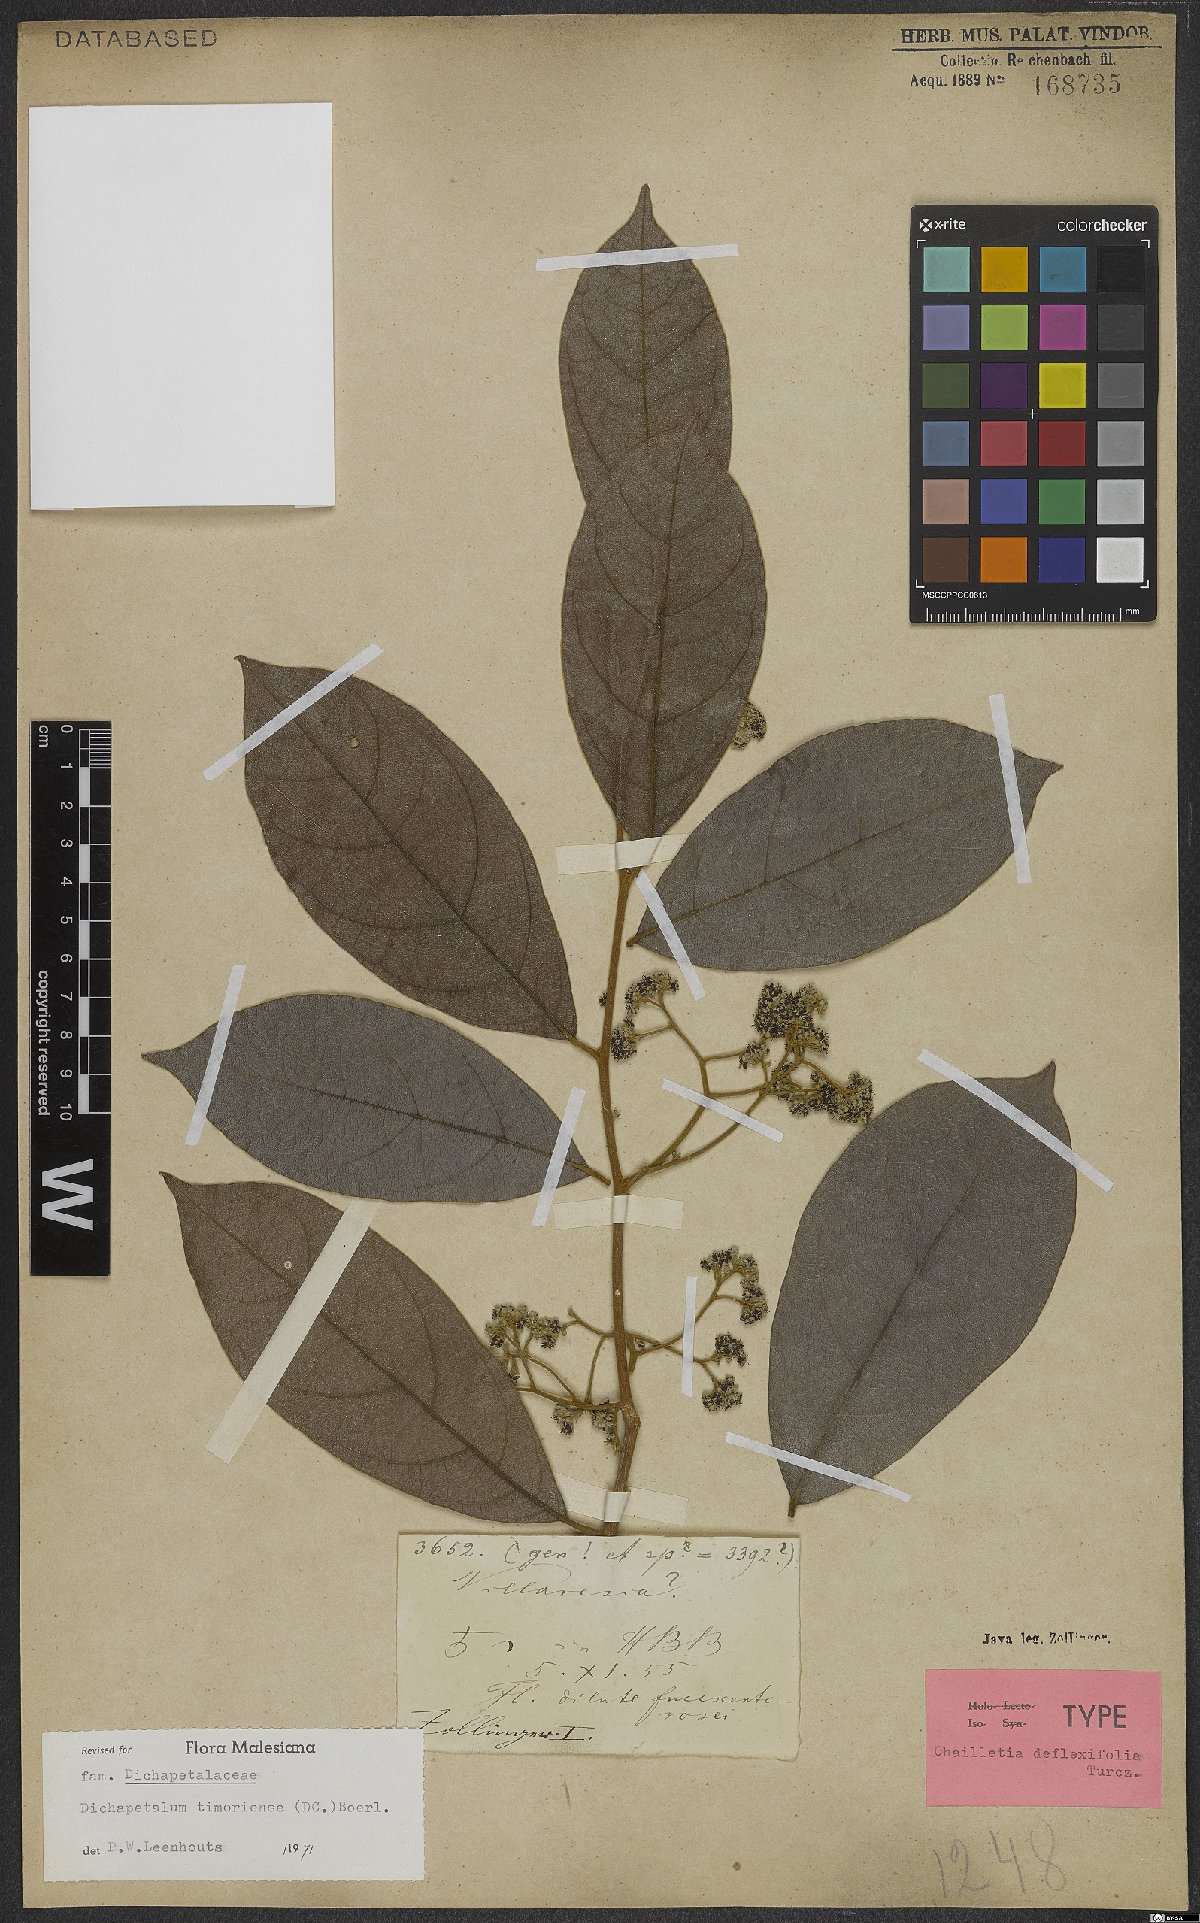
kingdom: Plantae
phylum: Tracheophyta
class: Magnoliopsida
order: Malpighiales
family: Dichapetalaceae
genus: Dichapetalum
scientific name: Dichapetalum timoriense
